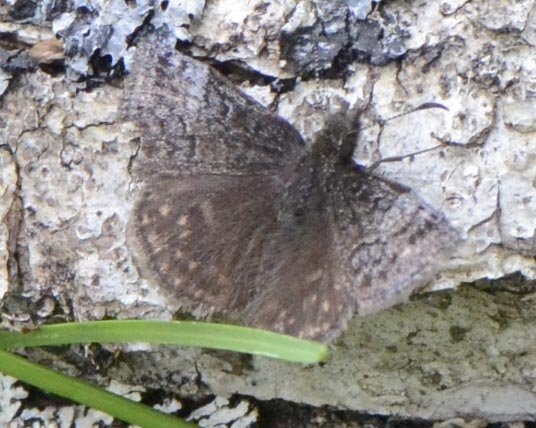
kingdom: Animalia
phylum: Arthropoda
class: Insecta
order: Lepidoptera
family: Hesperiidae
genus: Erynnis
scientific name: Erynnis icelus
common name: Dreamy Duskywing
